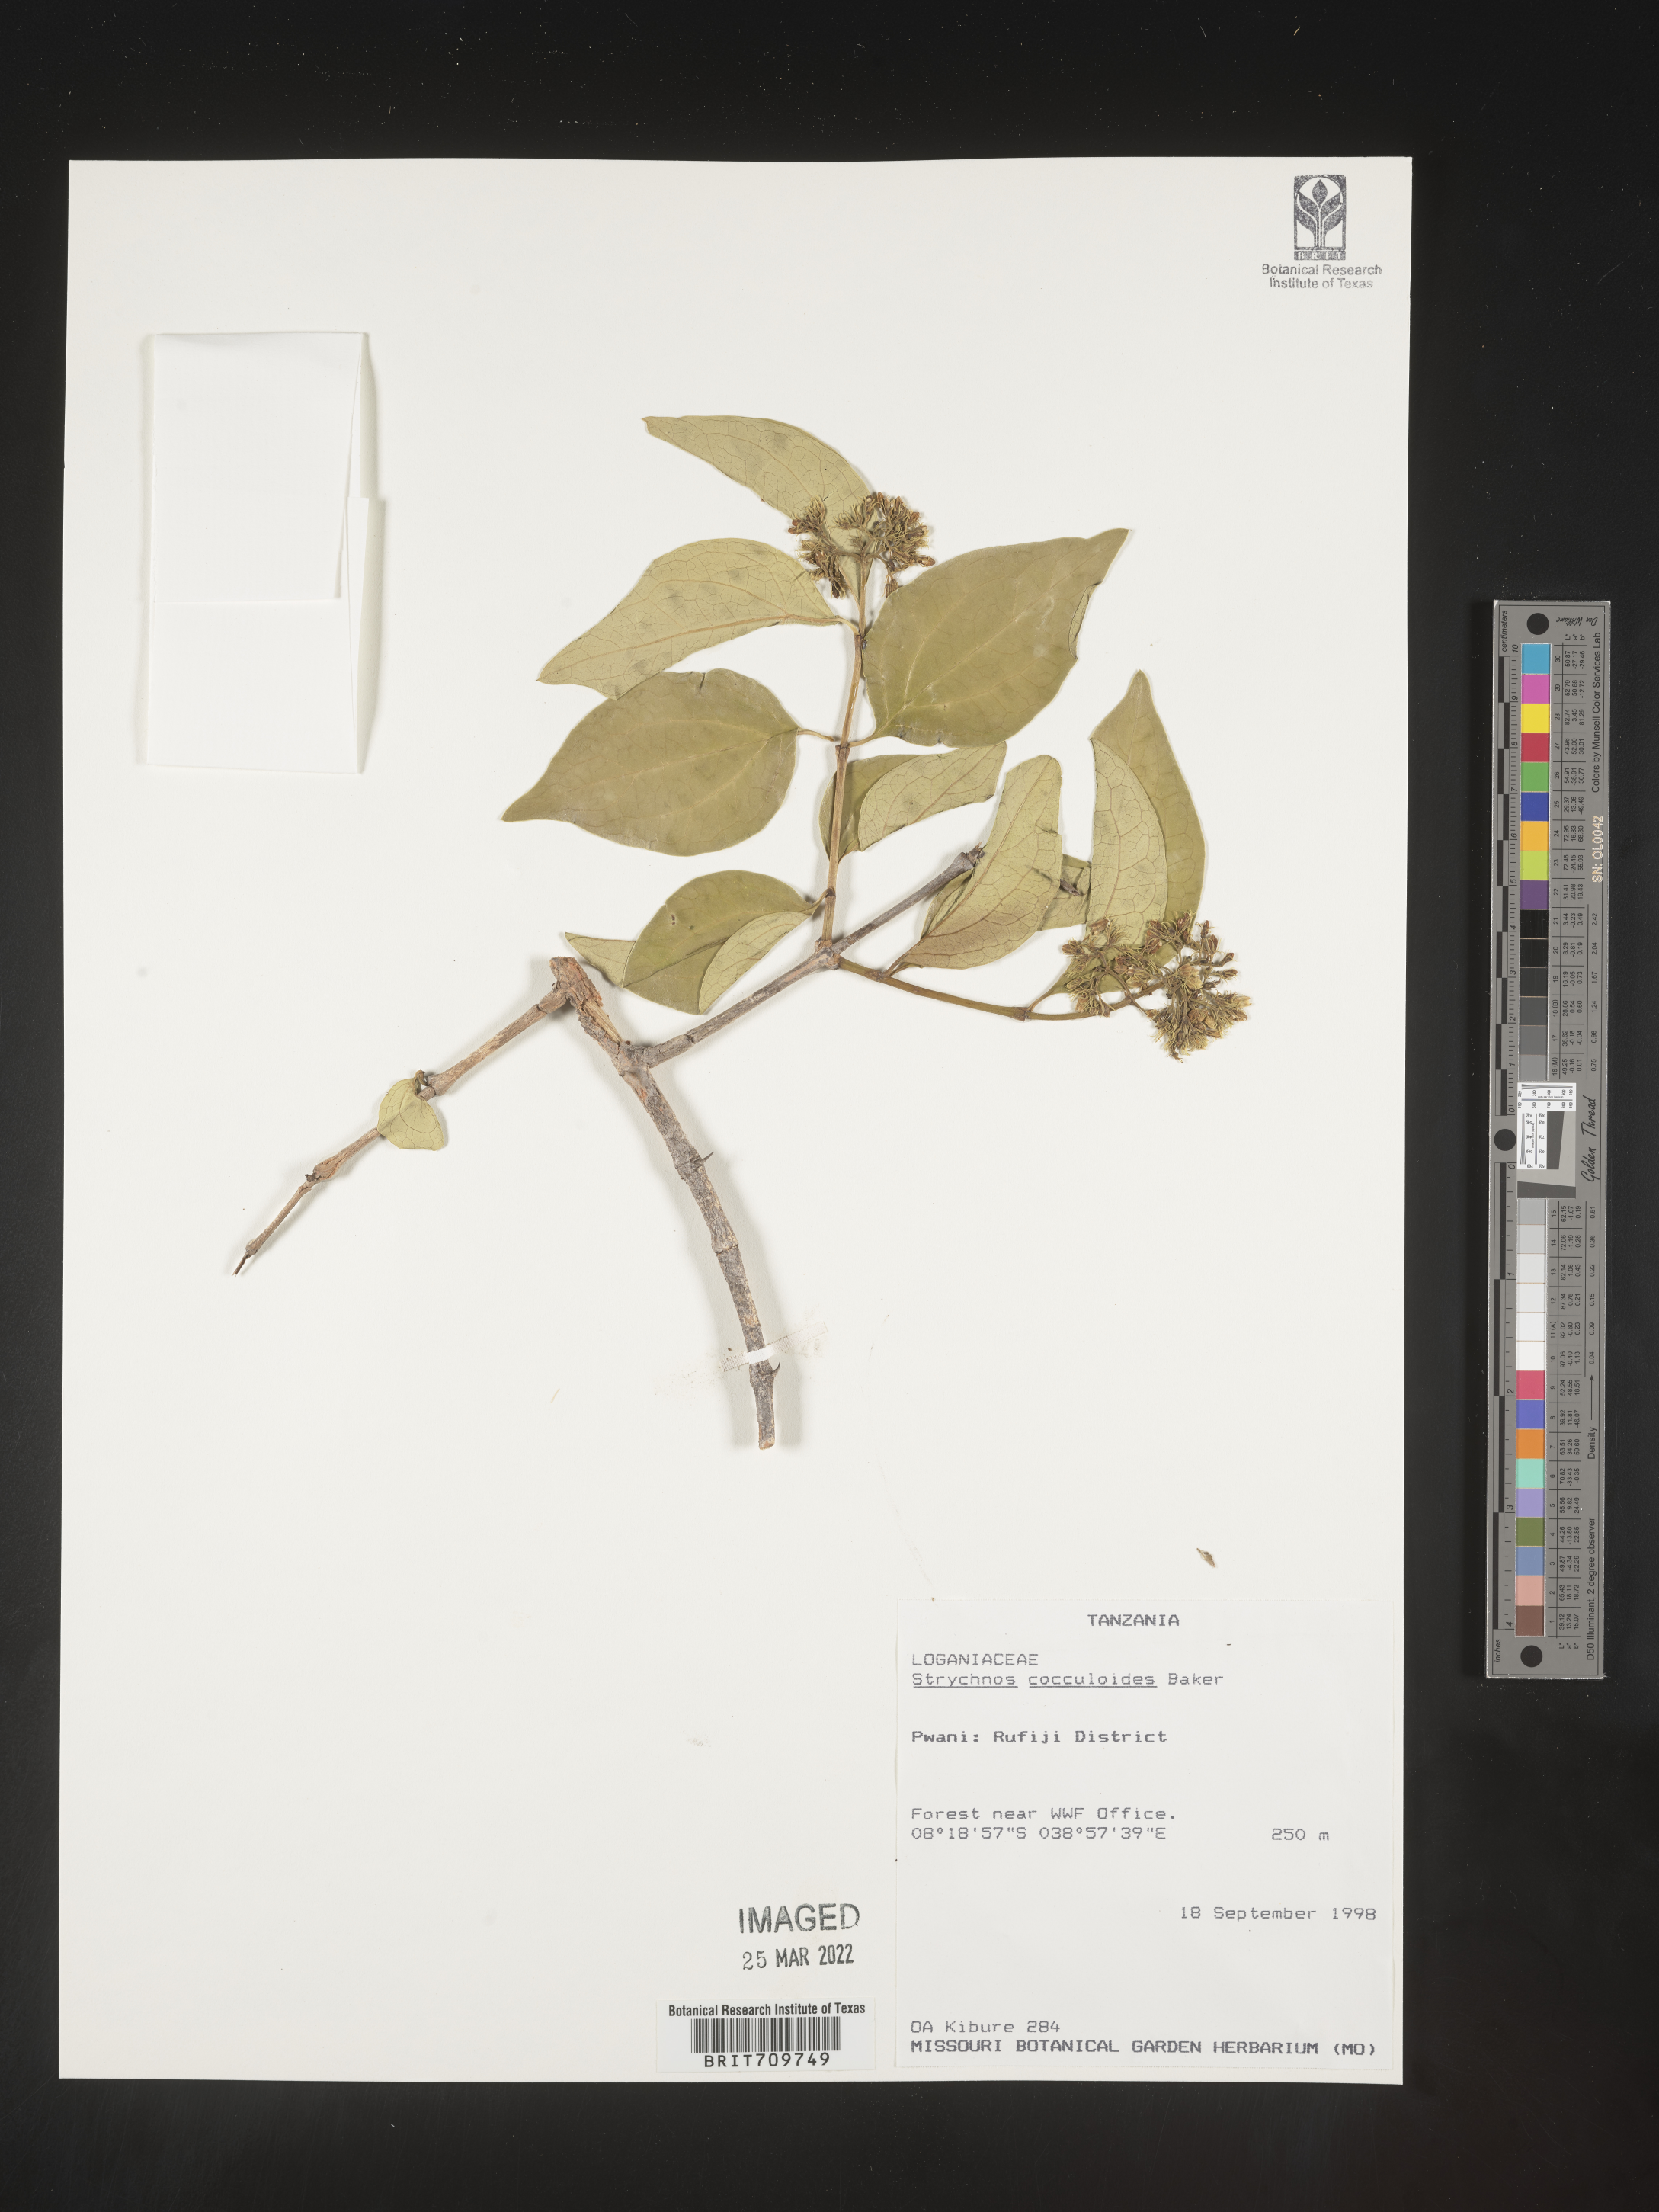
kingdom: Plantae
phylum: Tracheophyta
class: Magnoliopsida
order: Gentianales
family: Loganiaceae
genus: Strychnos
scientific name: Strychnos
